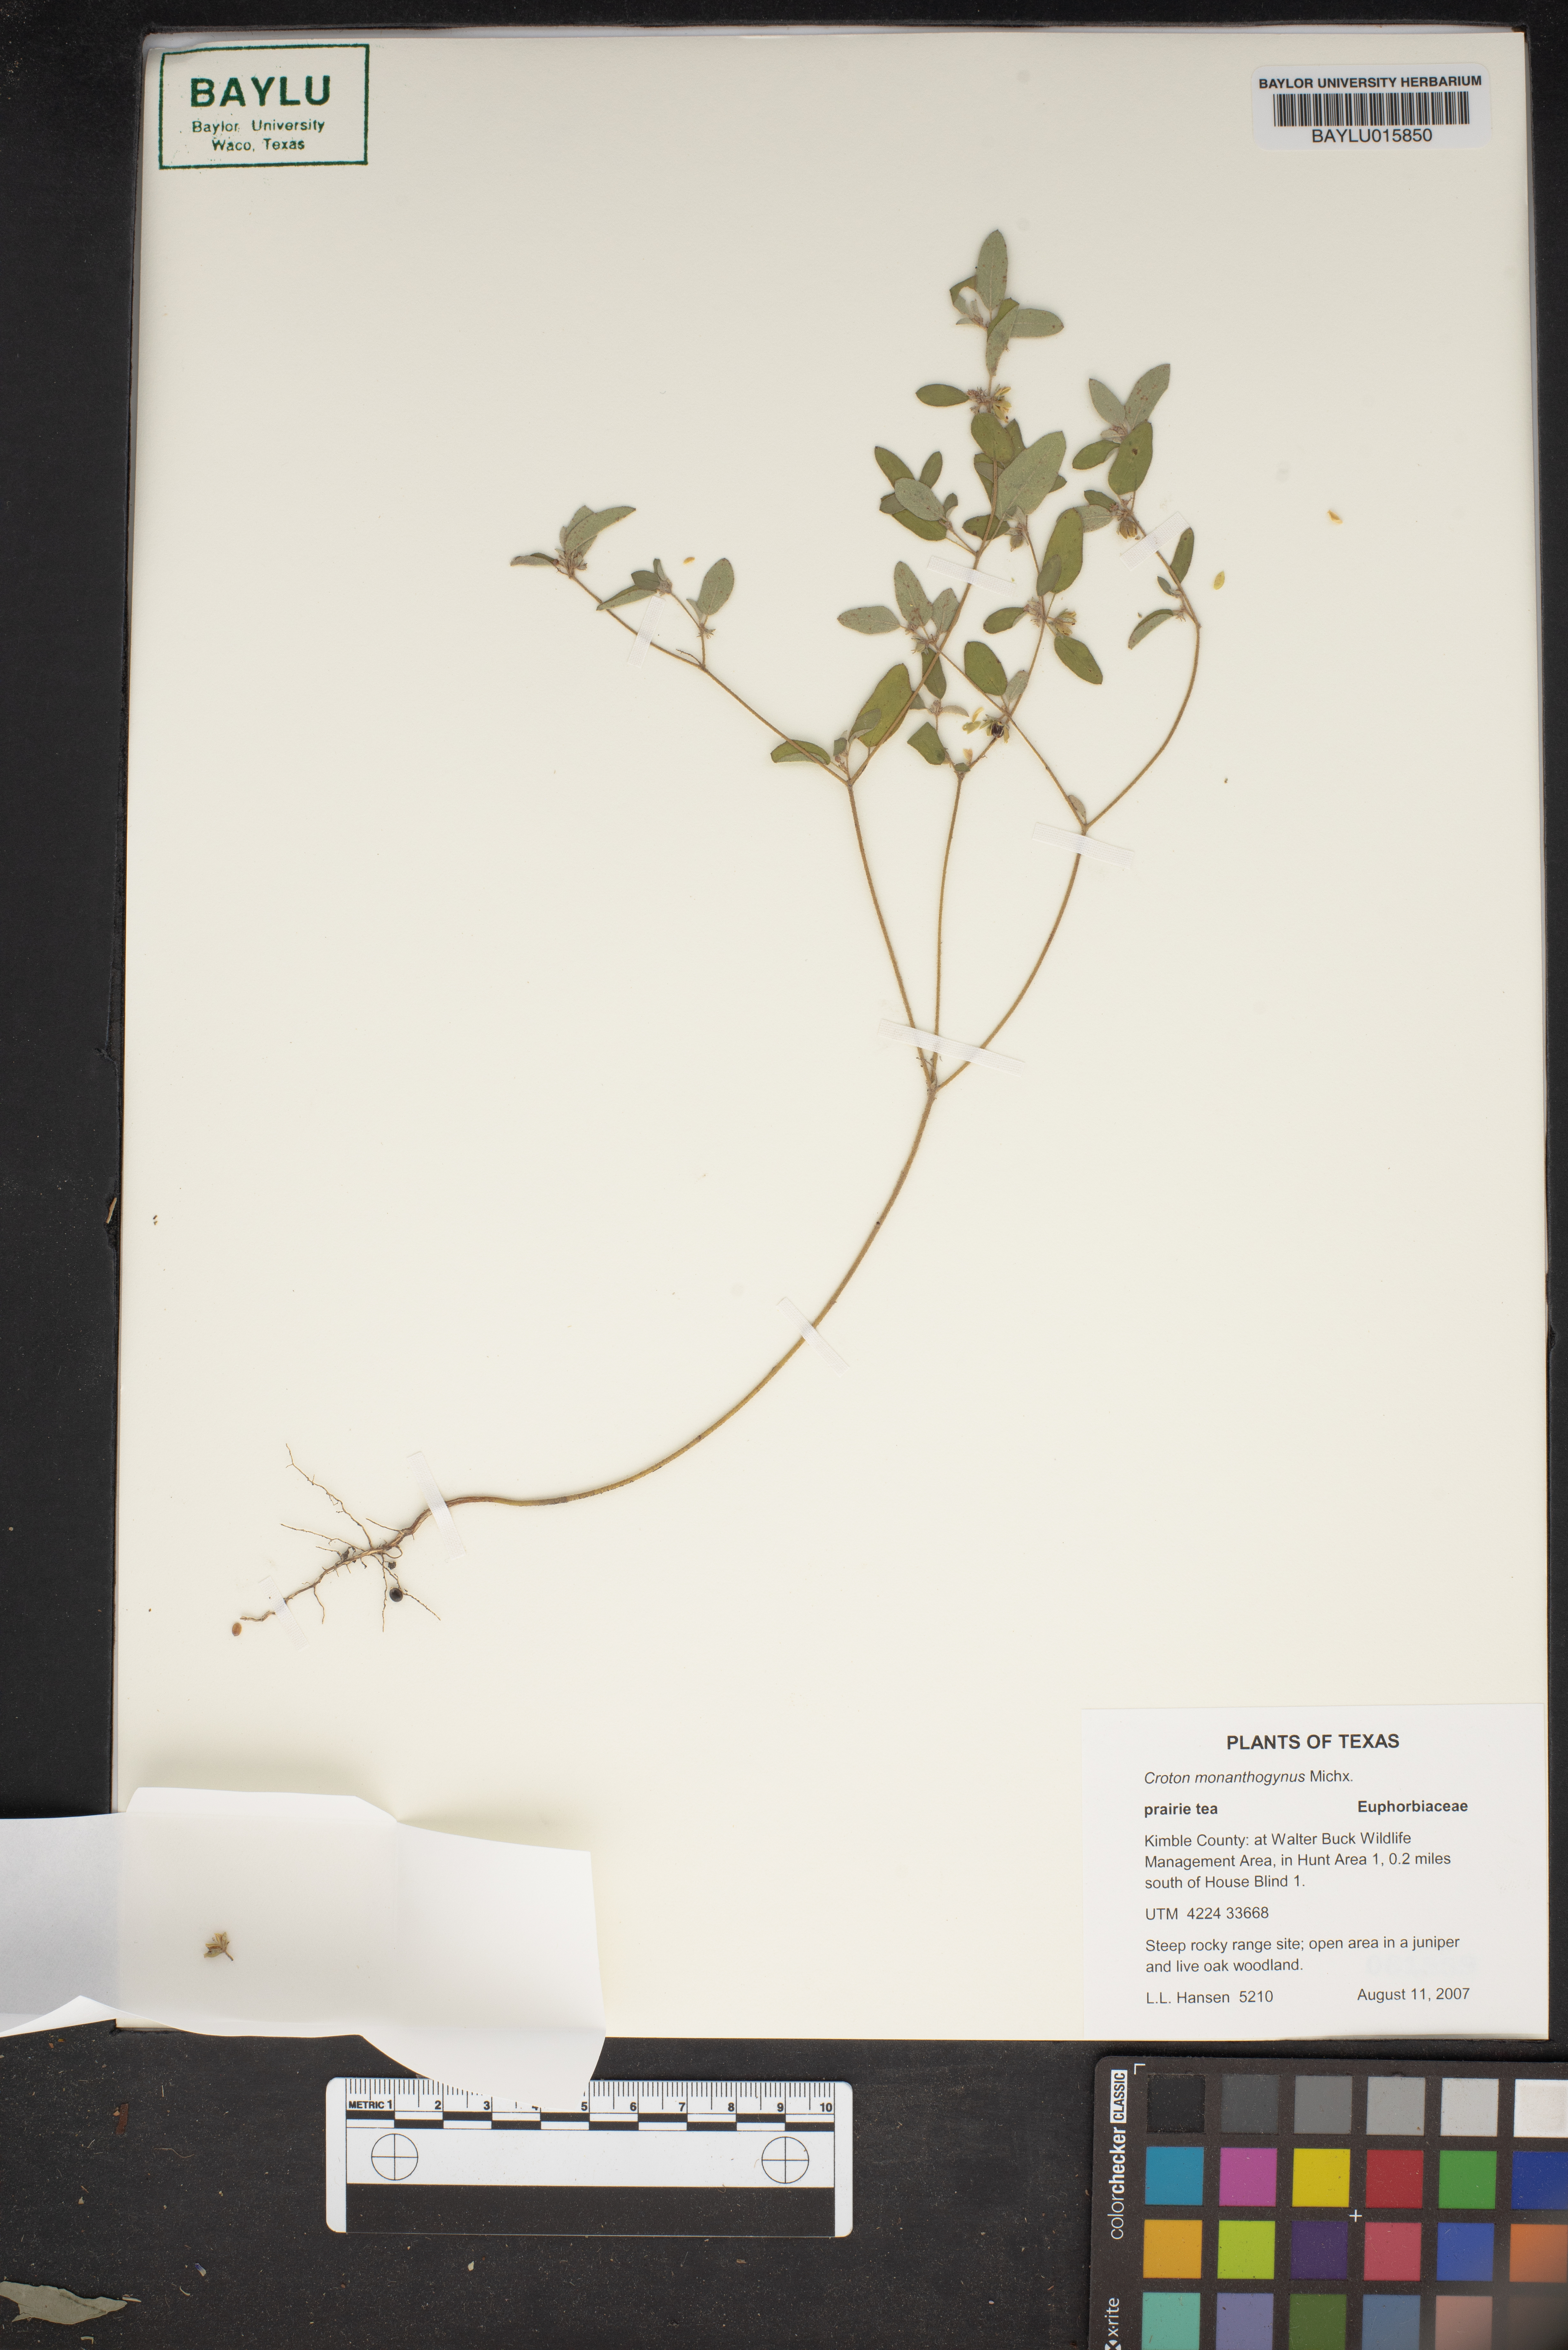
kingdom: Plantae
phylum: Tracheophyta
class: Magnoliopsida
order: Malpighiales
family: Euphorbiaceae
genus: Croton
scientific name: Croton monanthogynus
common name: One-seed croton
